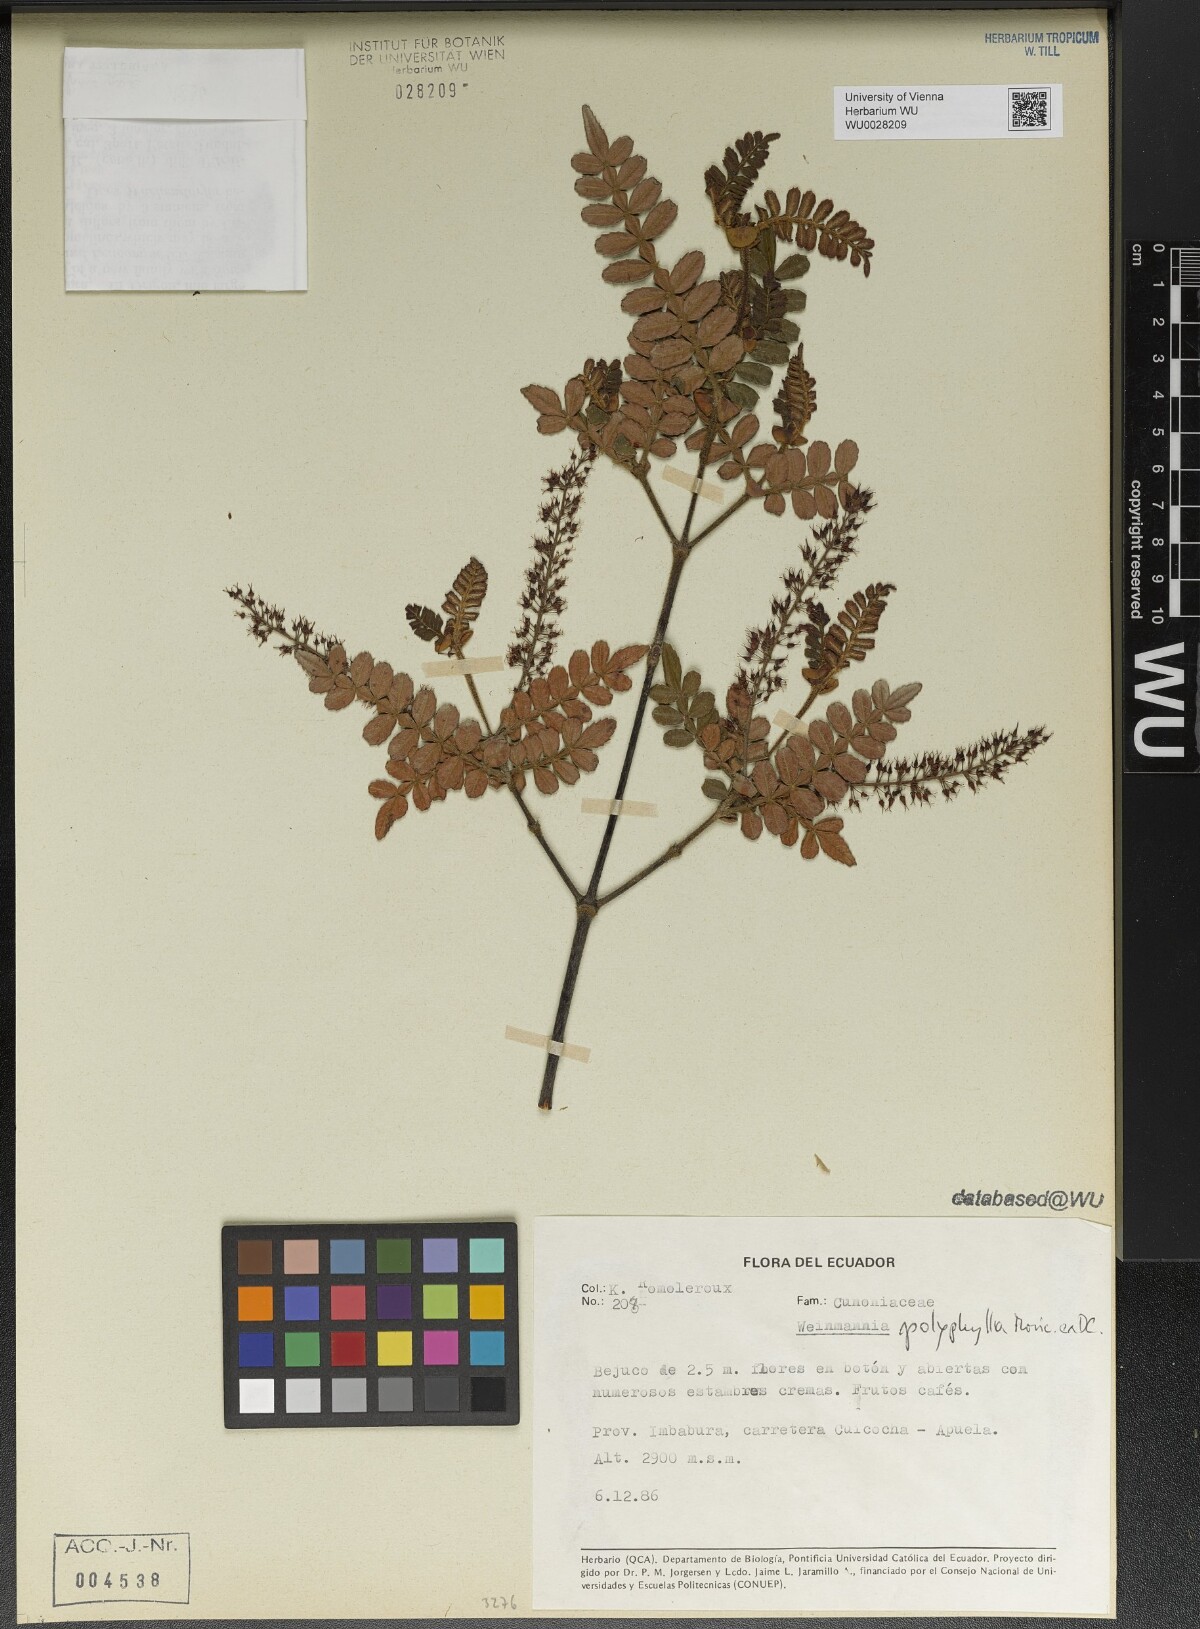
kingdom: Plantae
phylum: Tracheophyta
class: Magnoliopsida
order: Oxalidales
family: Cunoniaceae
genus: Weinmannia
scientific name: Weinmannia polyphylla
